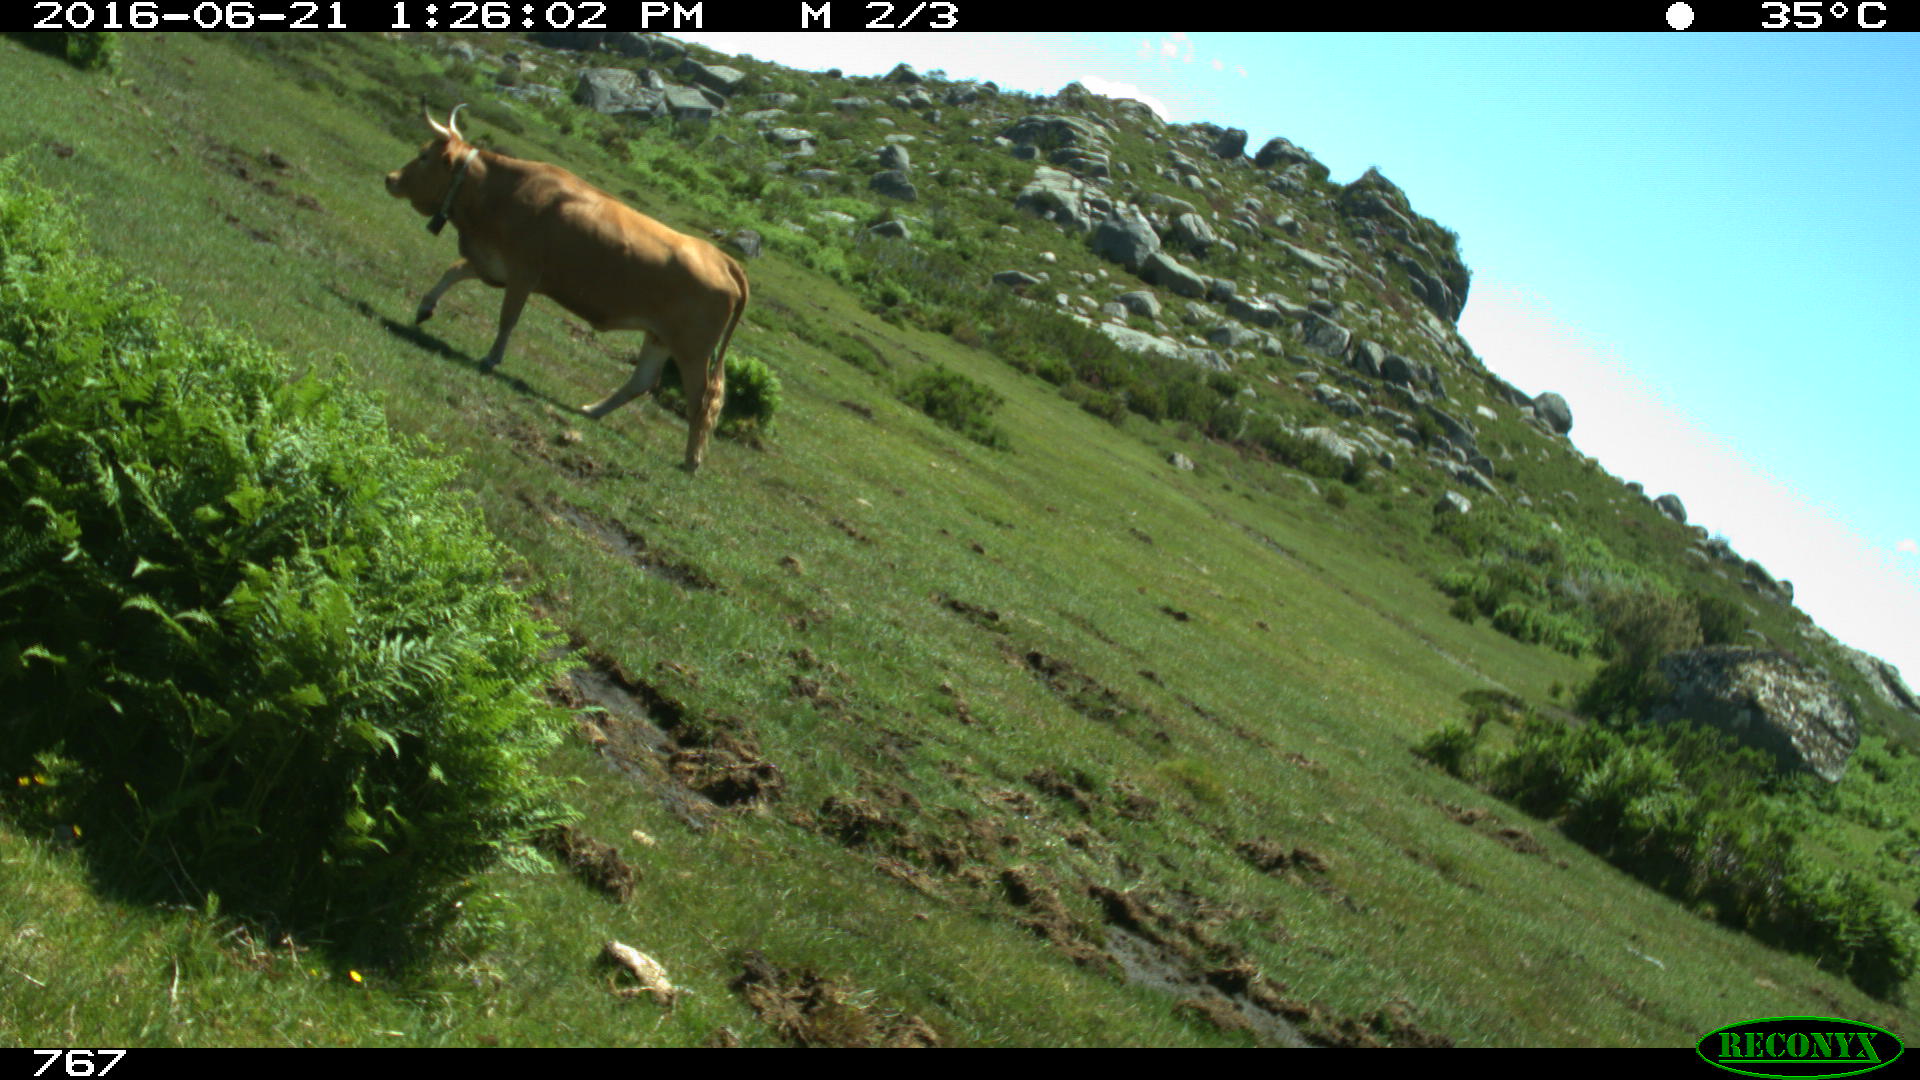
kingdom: Animalia
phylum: Chordata
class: Mammalia
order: Artiodactyla
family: Bovidae
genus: Bos
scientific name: Bos taurus
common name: Domesticated cattle
